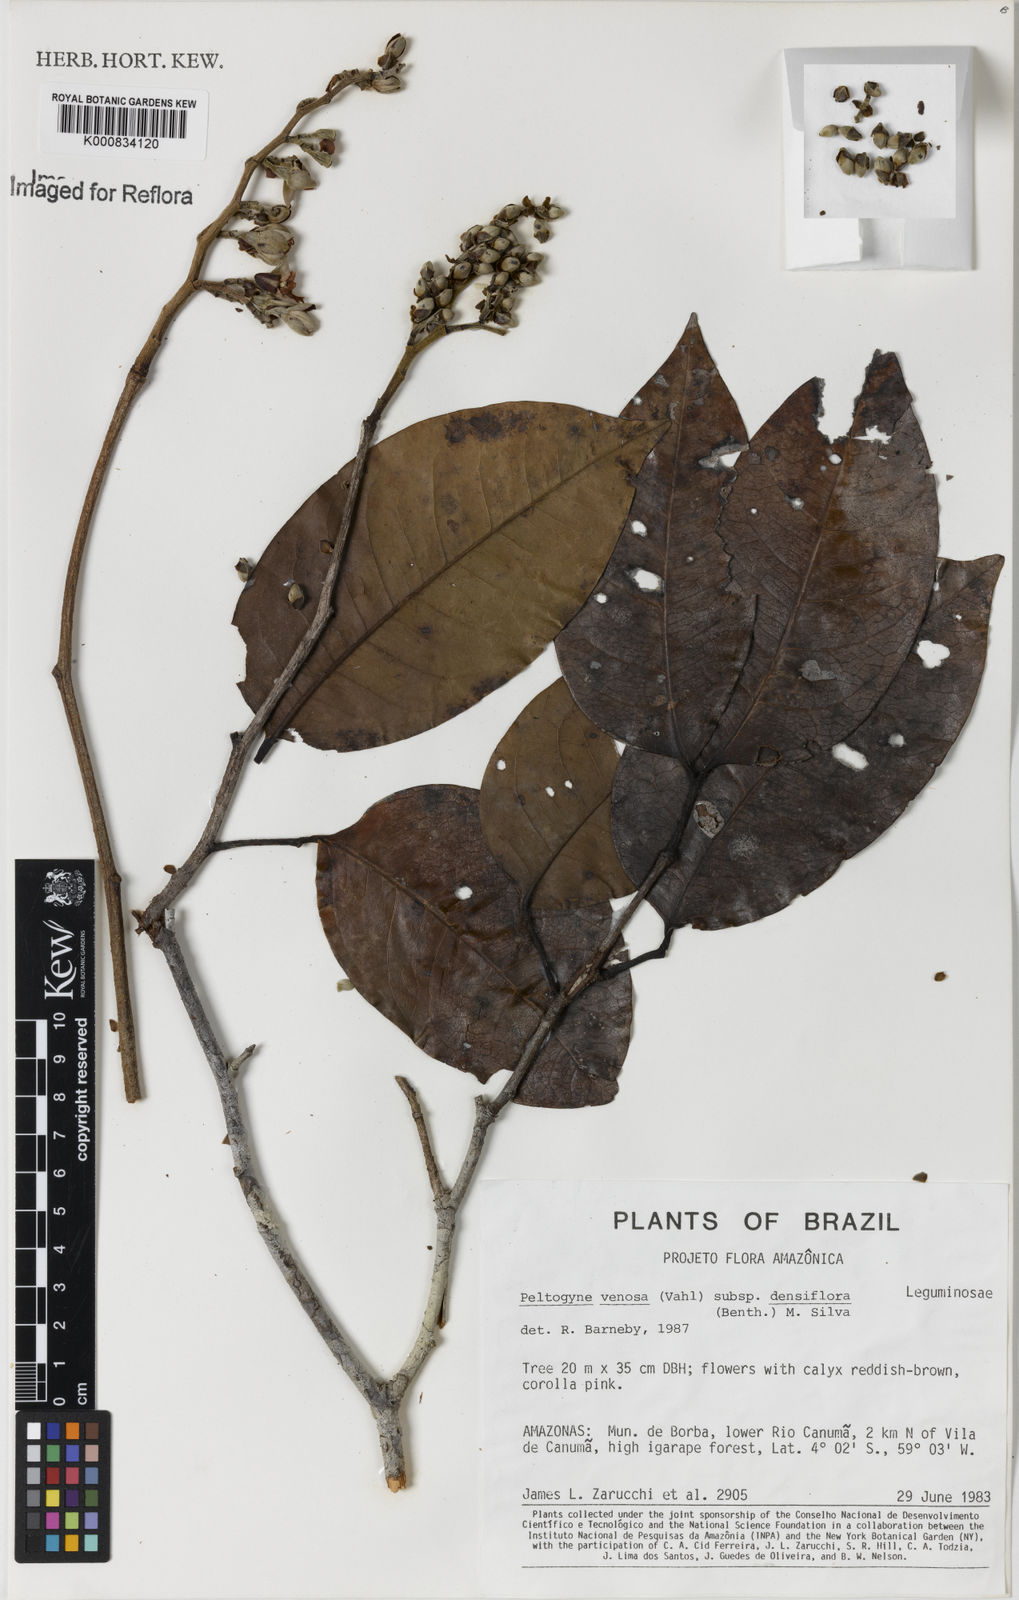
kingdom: Plantae
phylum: Tracheophyta
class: Magnoliopsida
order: Fabales
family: Fabaceae
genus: Peltogyne
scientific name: Peltogyne venosa
